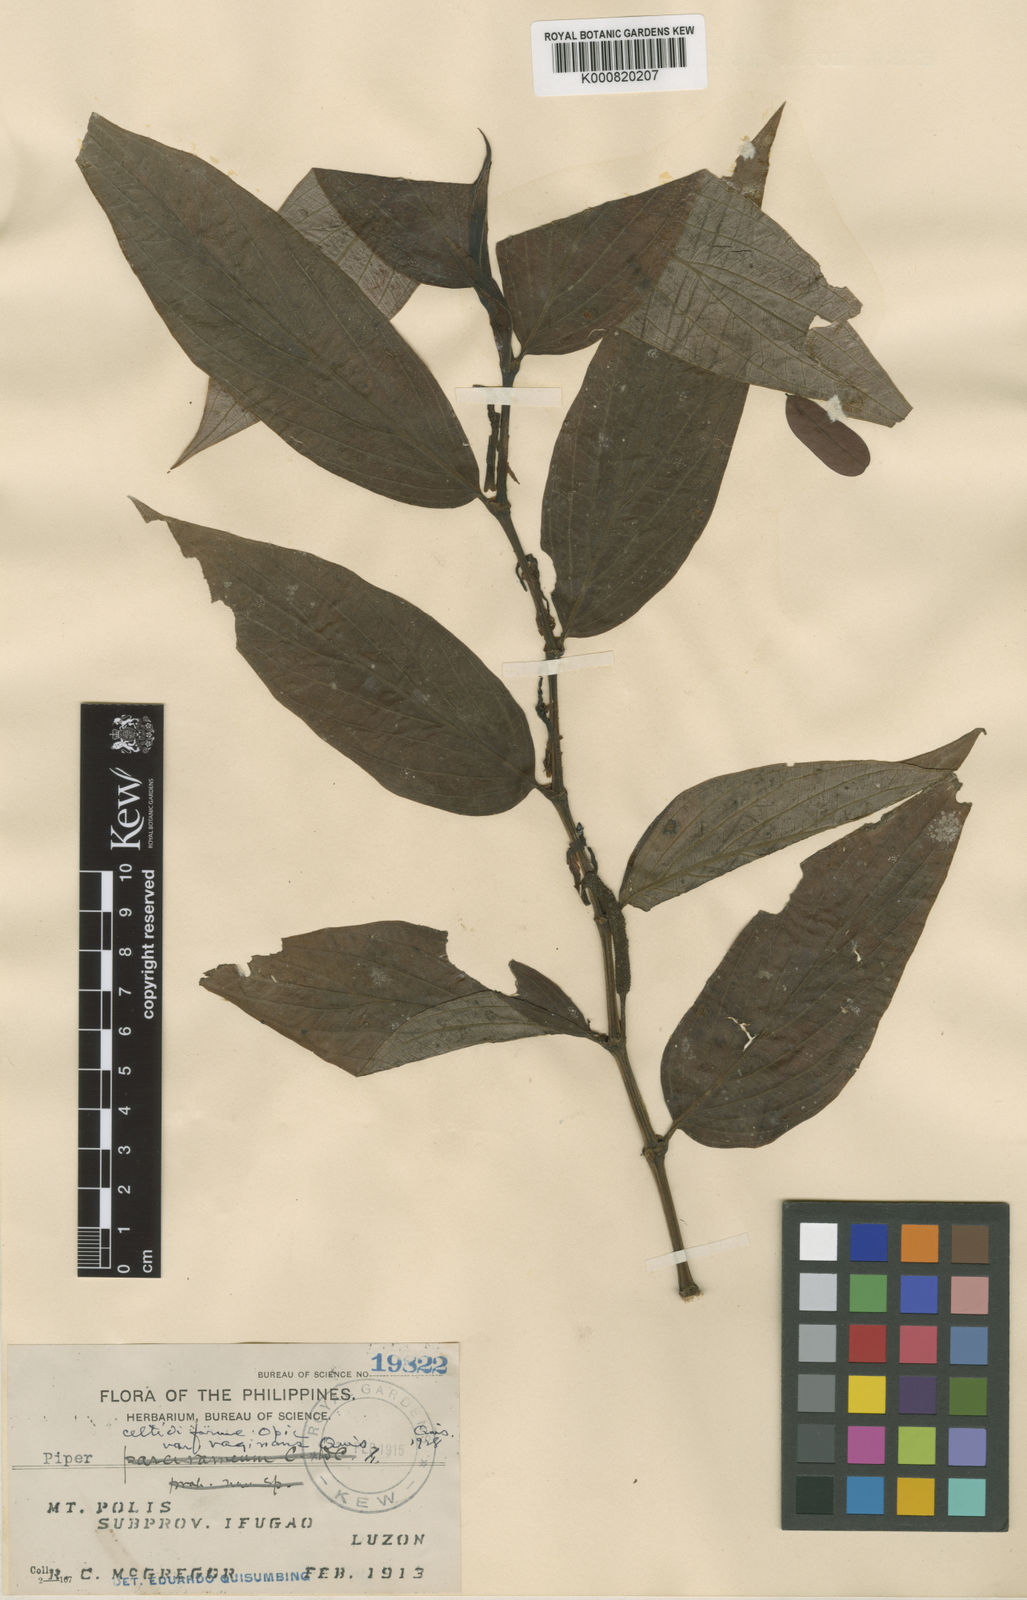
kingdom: Plantae
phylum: Tracheophyta
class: Magnoliopsida
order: Piperales
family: Piperaceae
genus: Piper
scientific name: Piper celtidiforme
